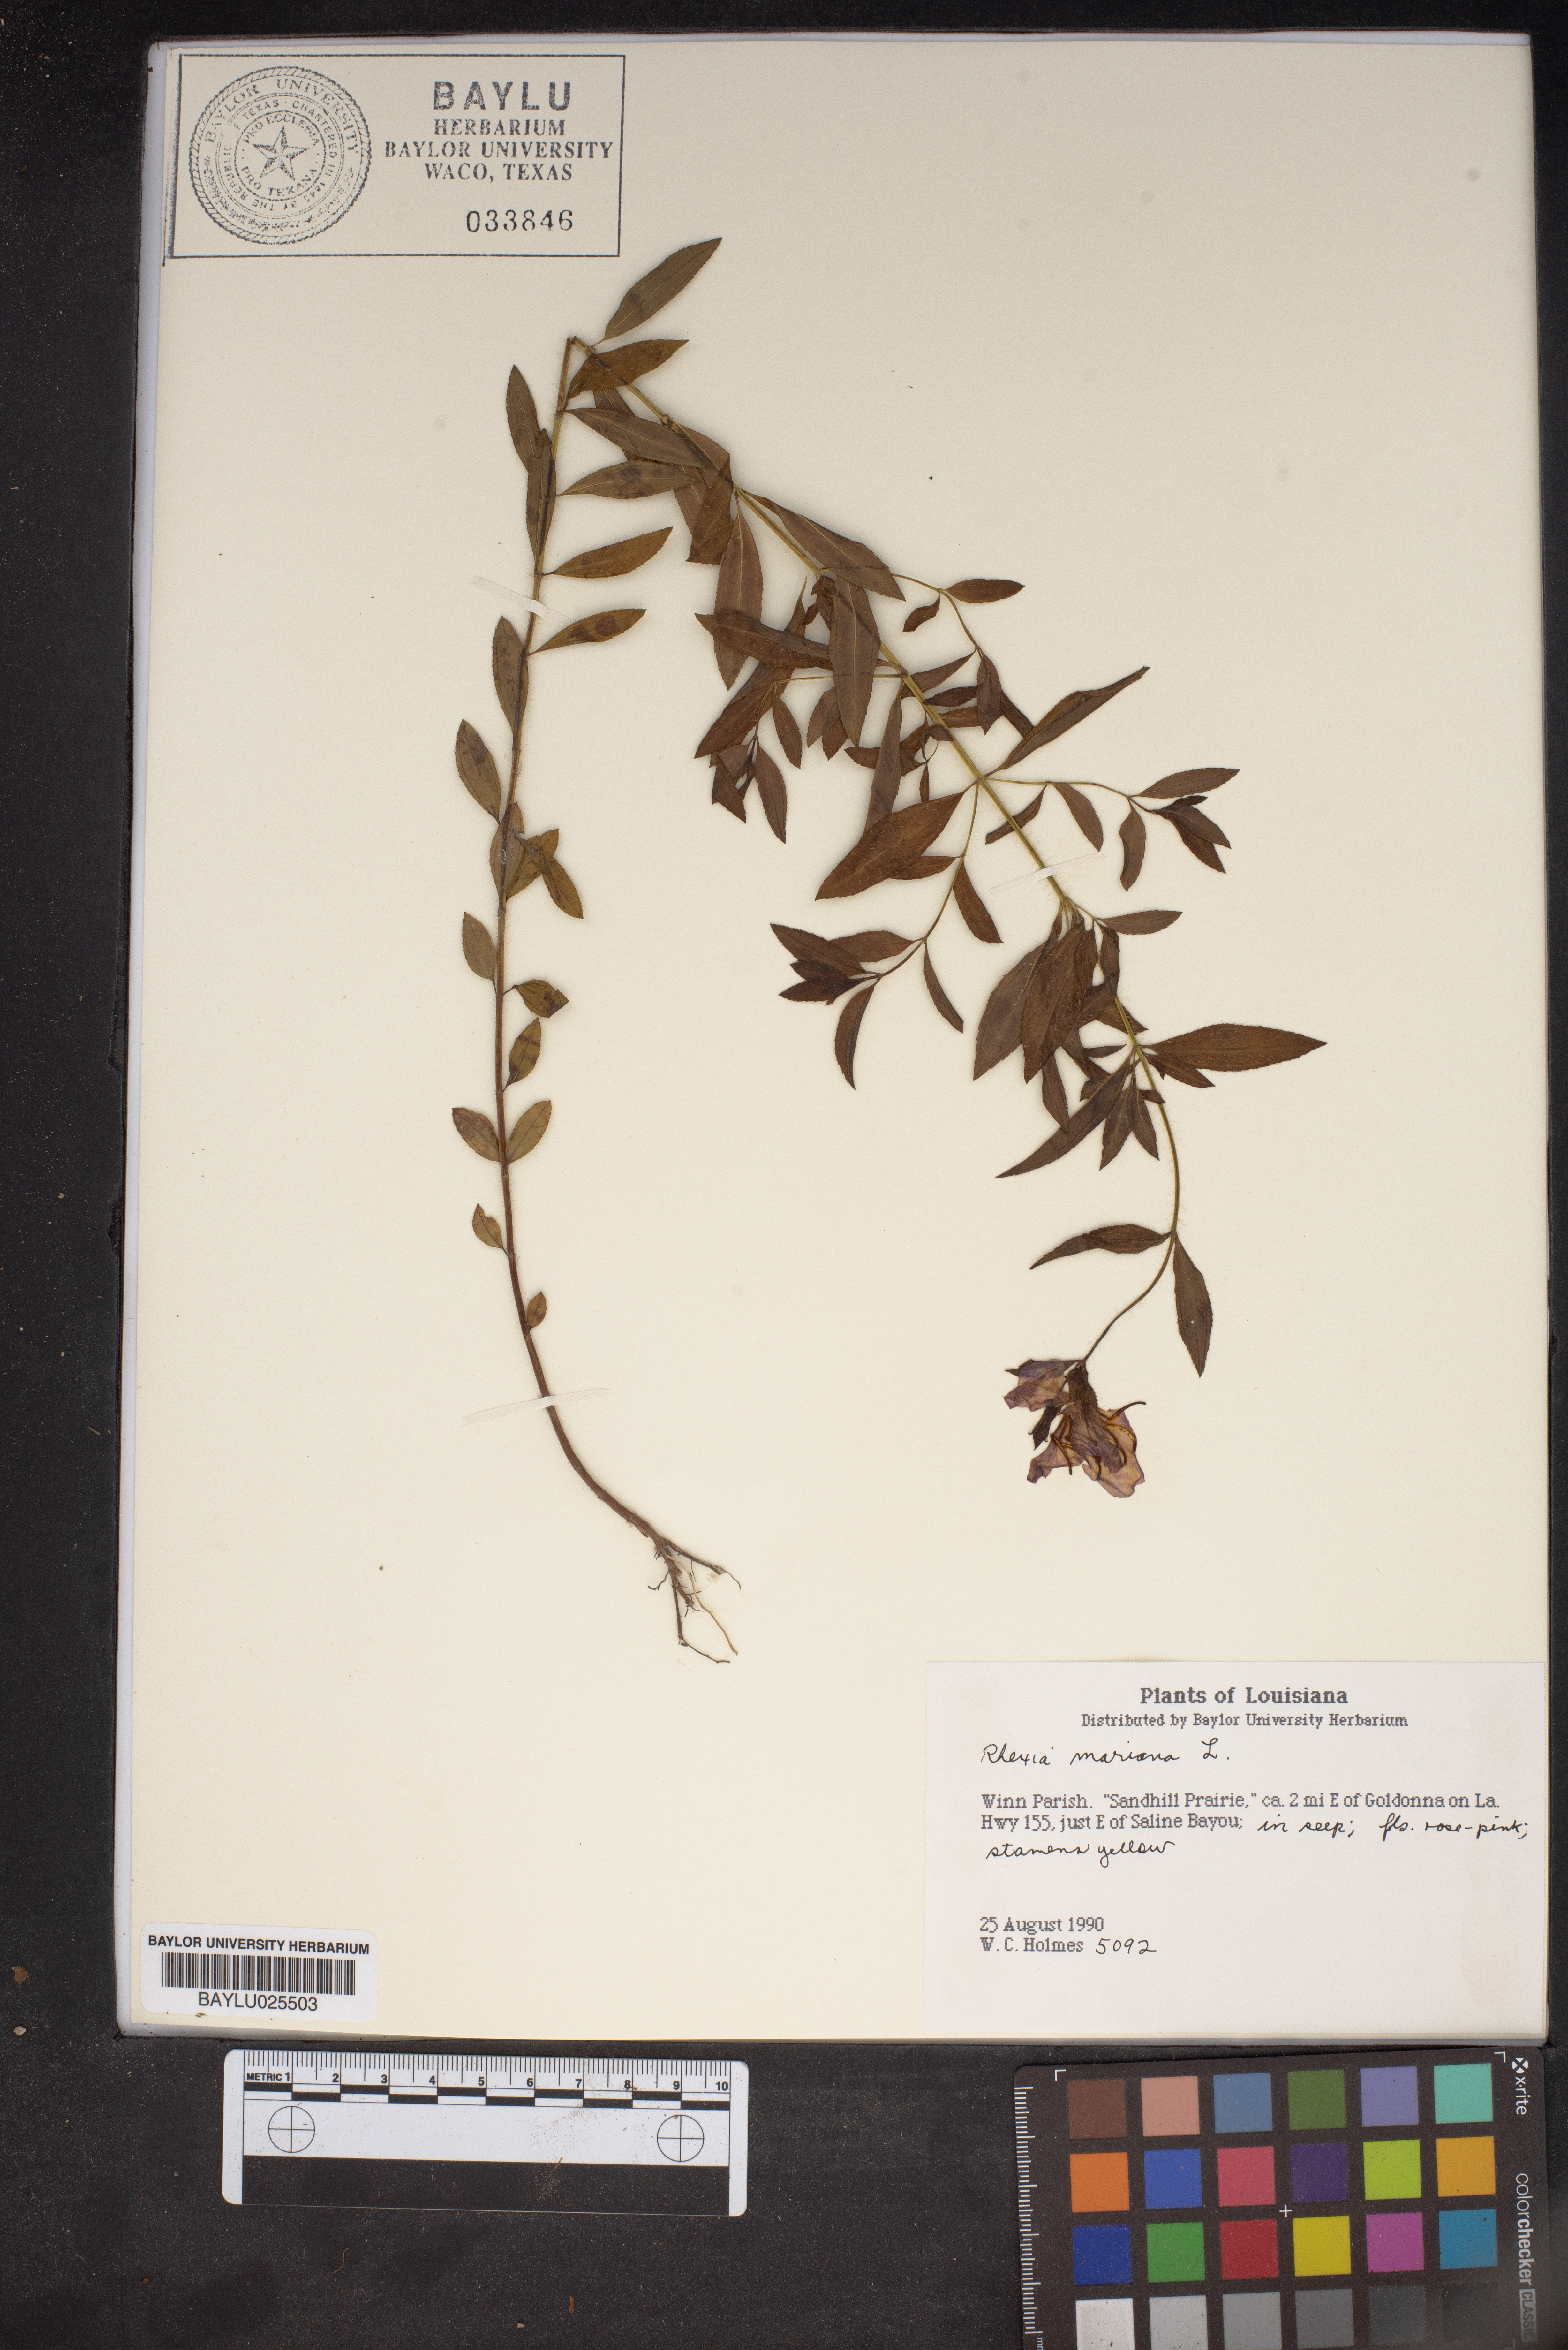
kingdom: Plantae
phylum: Tracheophyta
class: Magnoliopsida
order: Myrtales
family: Melastomataceae
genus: Rhexia
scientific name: Rhexia mariana
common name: Dull meadow-pitcher
